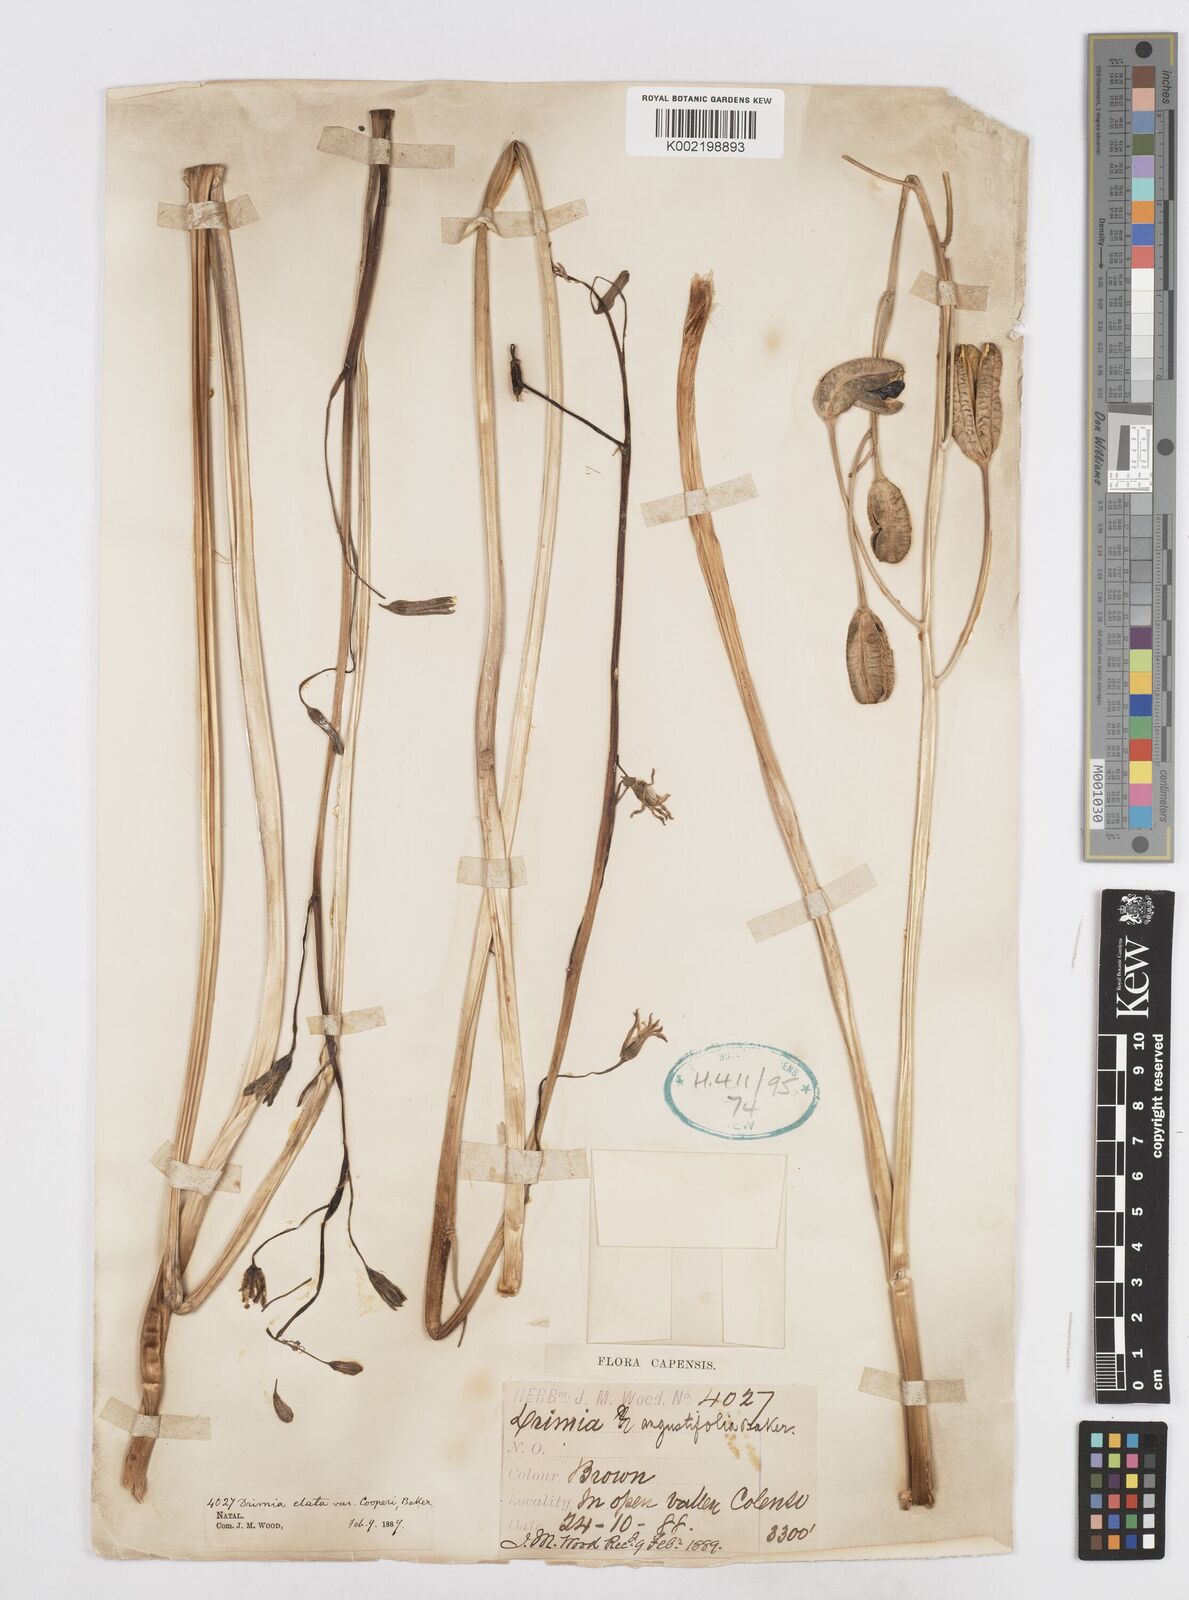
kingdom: Plantae
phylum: Tracheophyta
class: Liliopsida
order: Asparagales
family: Asparagaceae
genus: Drimia
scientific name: Drimia basutica
